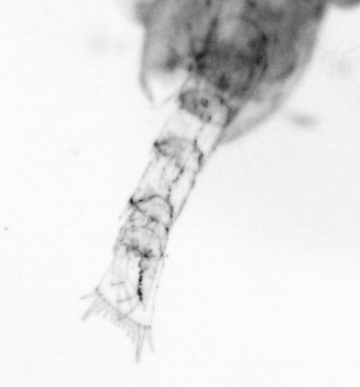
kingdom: Animalia
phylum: Arthropoda
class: Copepoda
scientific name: Copepoda
